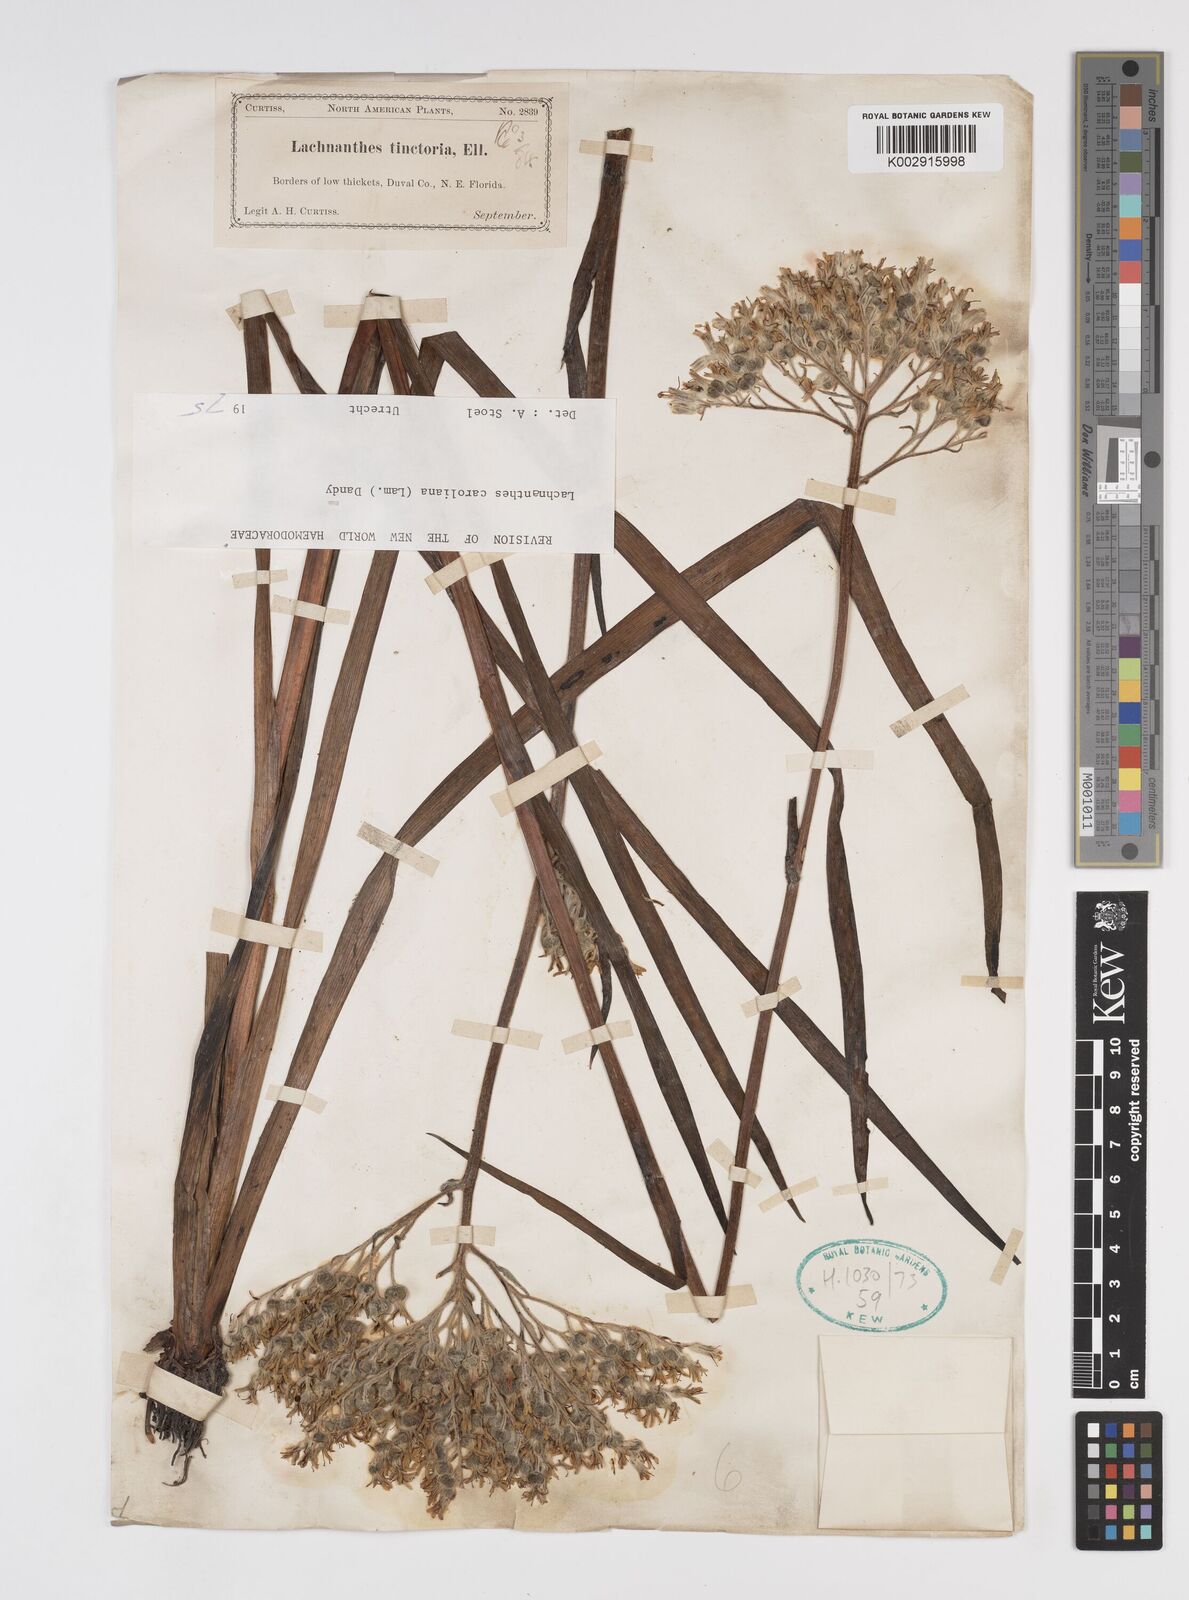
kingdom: Plantae
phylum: Tracheophyta
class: Liliopsida
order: Commelinales
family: Haemodoraceae
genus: Lachnanthes
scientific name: Lachnanthes caroliniana
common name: Carolina redroot
